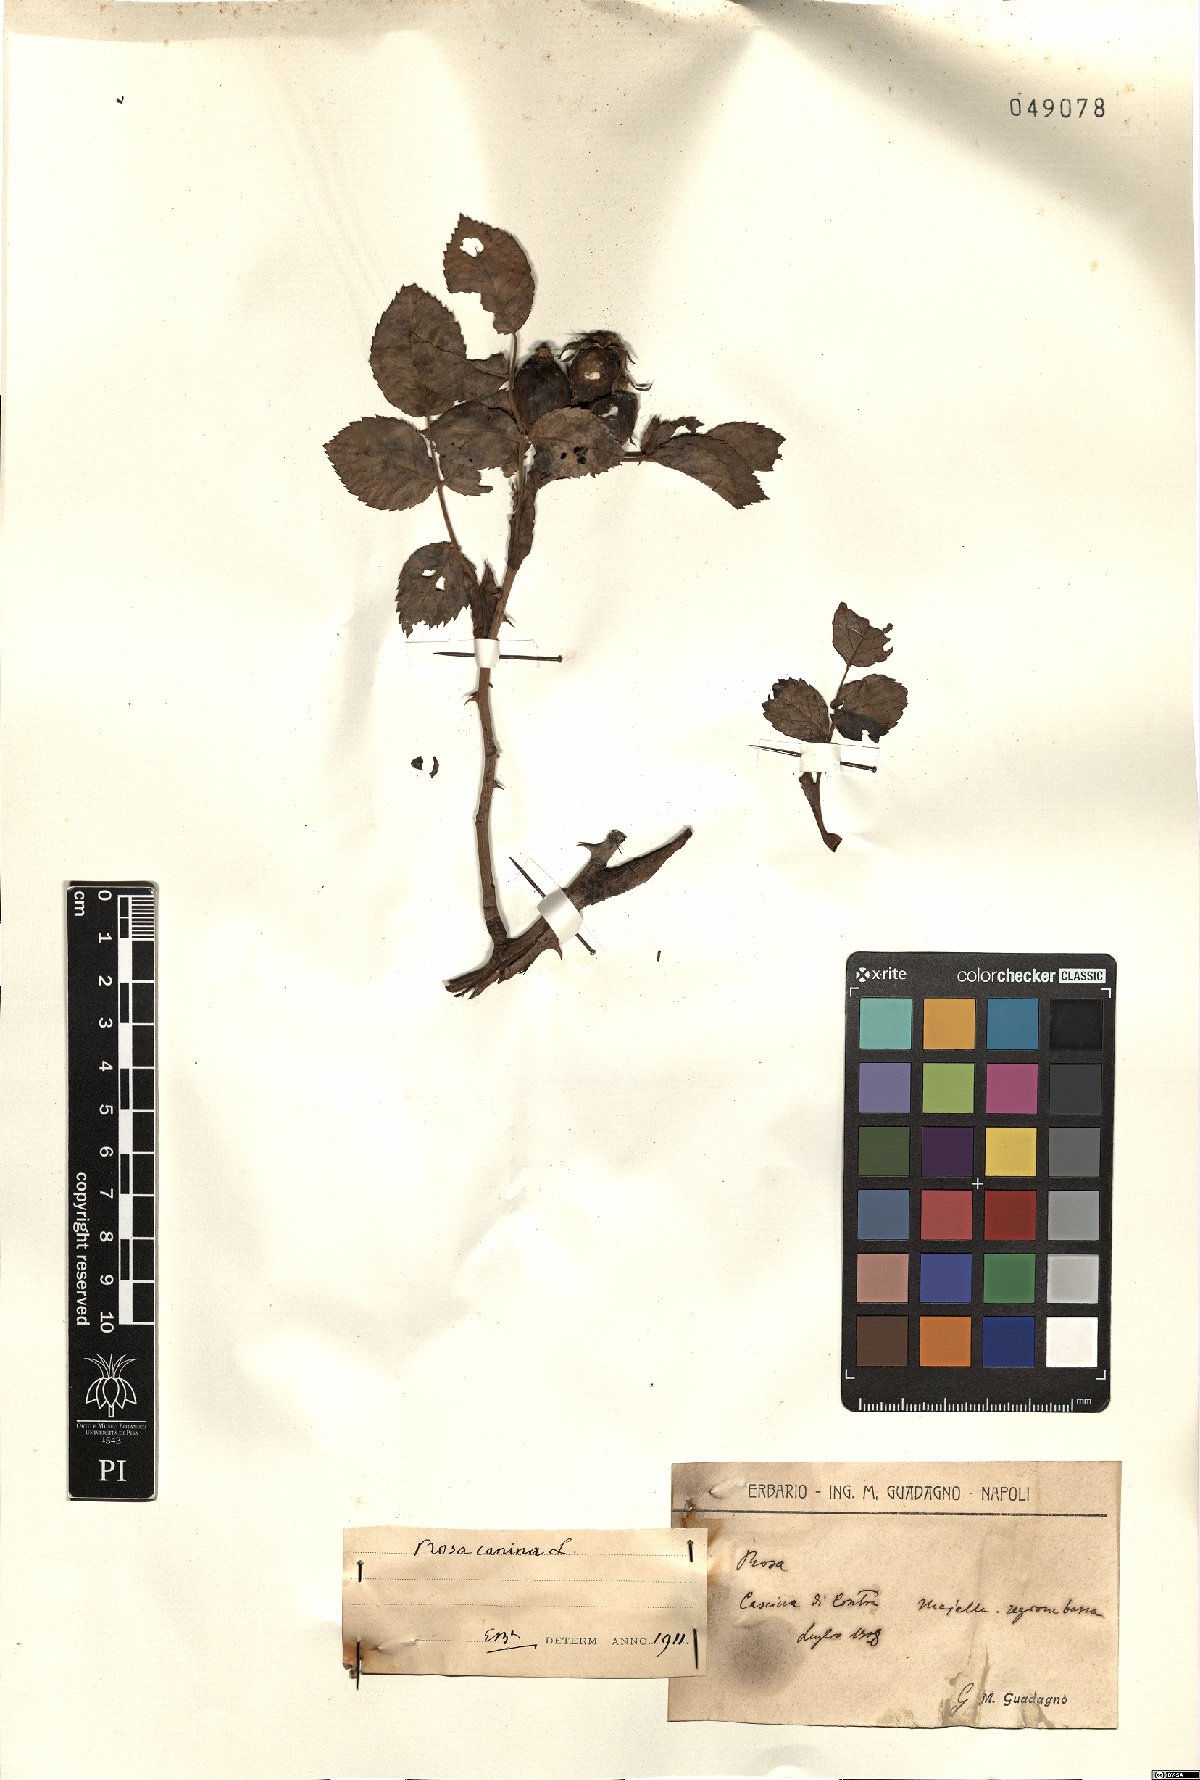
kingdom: Plantae
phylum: Tracheophyta
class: Magnoliopsida
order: Rosales
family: Rosaceae
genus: Rosa
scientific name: Rosa canina
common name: Dog rose
